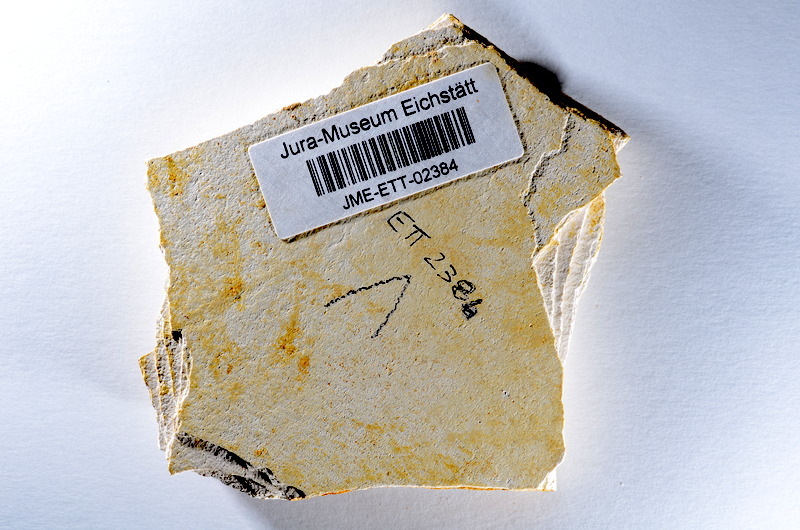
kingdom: Animalia
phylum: Chordata
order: Salmoniformes
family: Orthogonikleithridae
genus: Orthogonikleithrus
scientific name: Orthogonikleithrus hoelli
